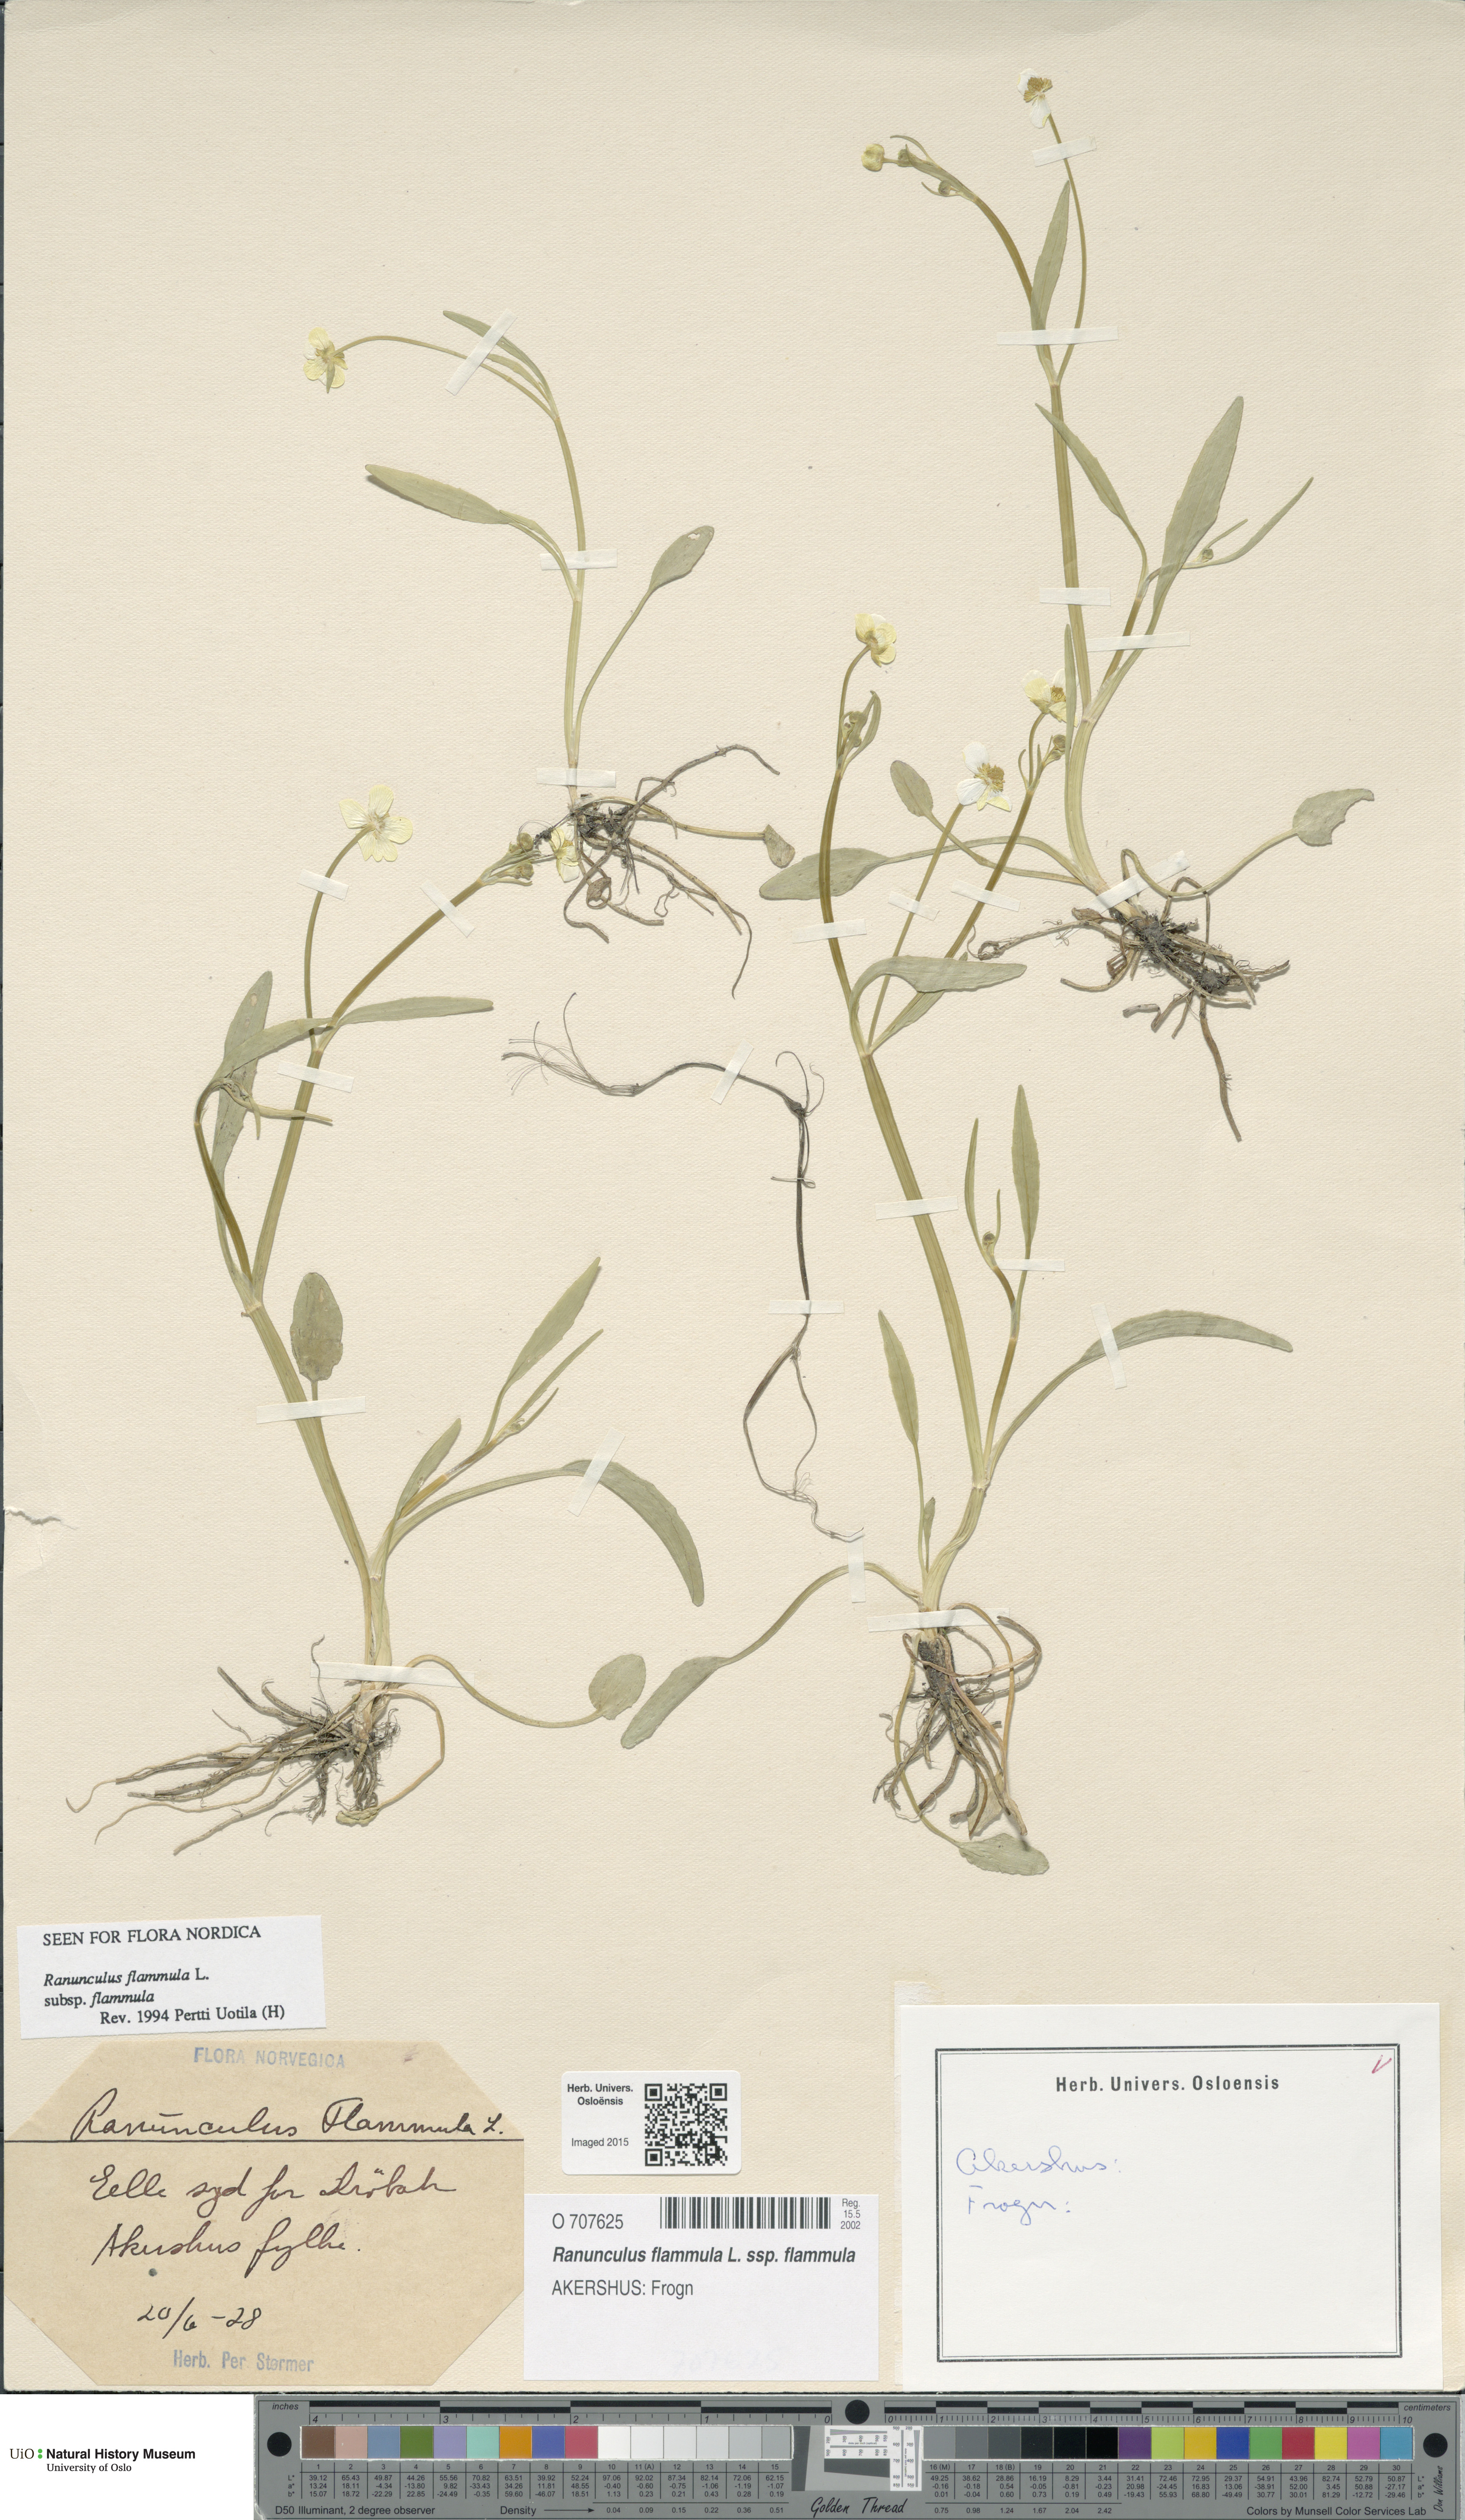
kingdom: Plantae
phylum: Tracheophyta
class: Magnoliopsida
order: Ranunculales
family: Ranunculaceae
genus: Ranunculus
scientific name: Ranunculus flammula
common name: Lesser spearwort
